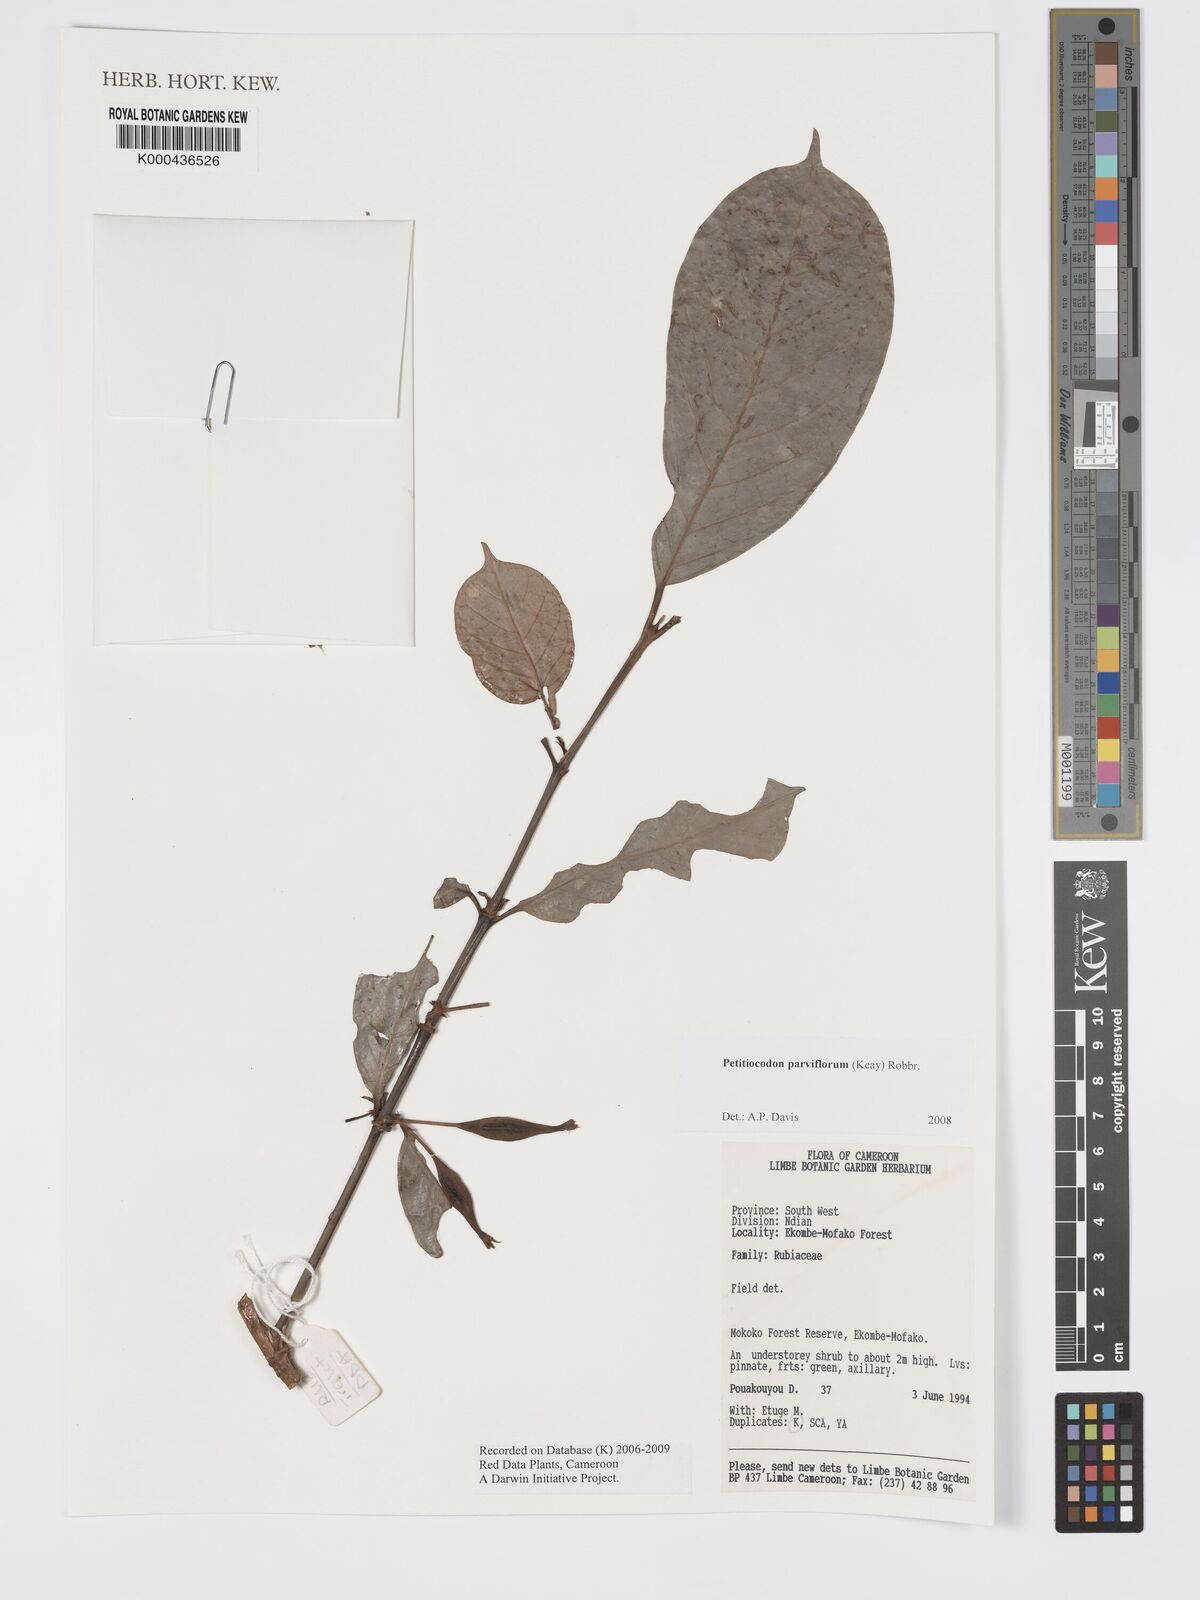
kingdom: Plantae
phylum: Tracheophyta
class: Magnoliopsida
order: Gentianales
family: Rubiaceae
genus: Petitiocodon
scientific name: Petitiocodon parviflorum
